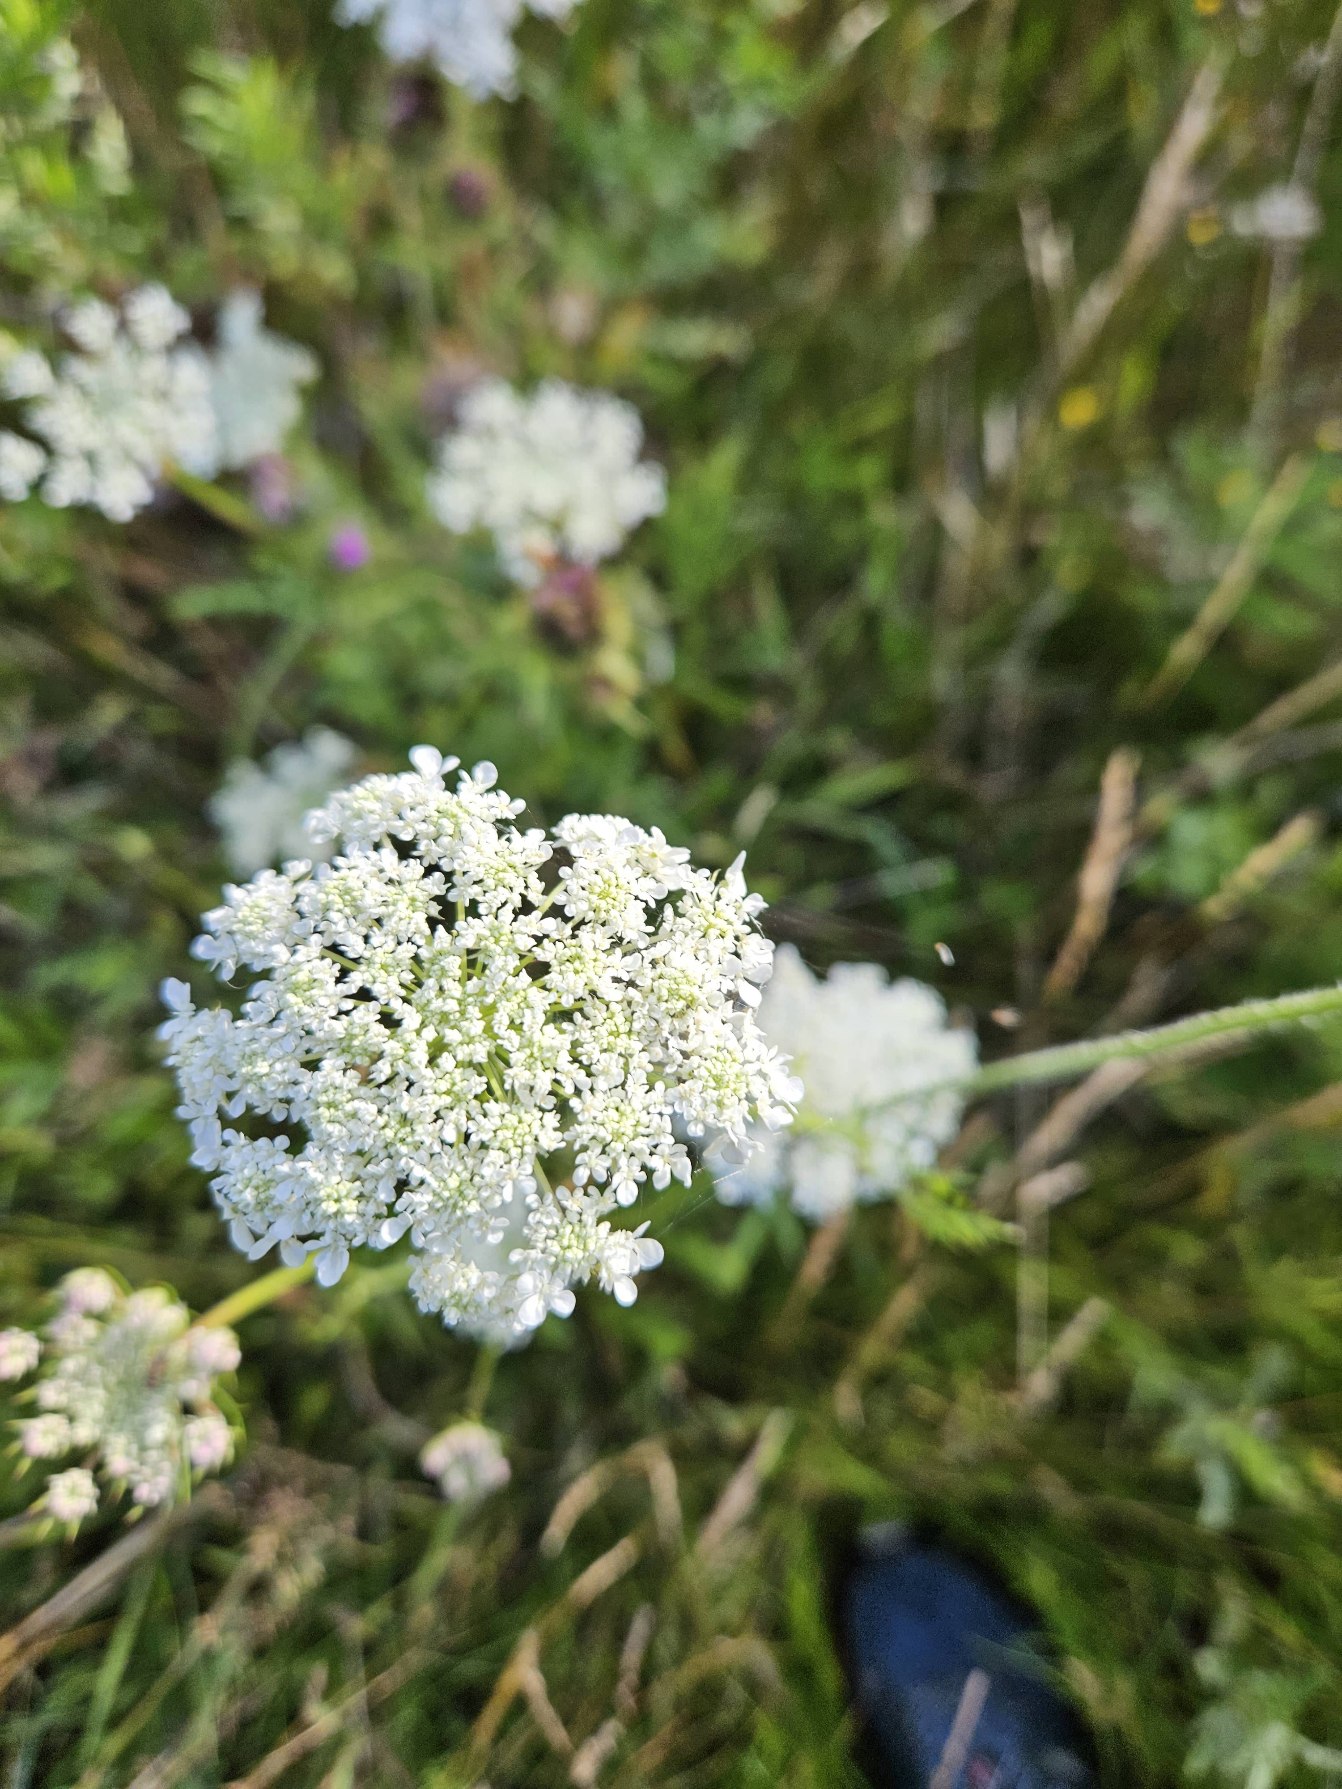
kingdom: Plantae
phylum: Tracheophyta
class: Magnoliopsida
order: Apiales
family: Apiaceae
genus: Daucus
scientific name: Daucus carota
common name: Gulerod
